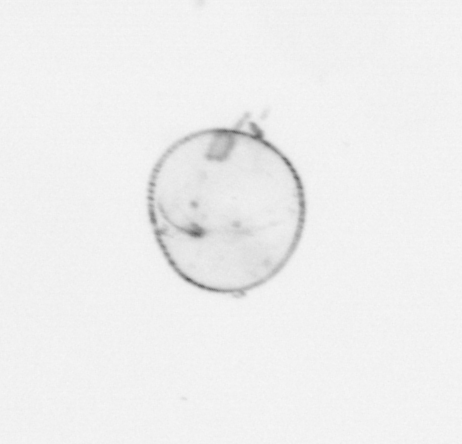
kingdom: Chromista
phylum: Myzozoa
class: Dinophyceae
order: Noctilucales
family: Noctilucaceae
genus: Noctiluca
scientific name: Noctiluca scintillans
